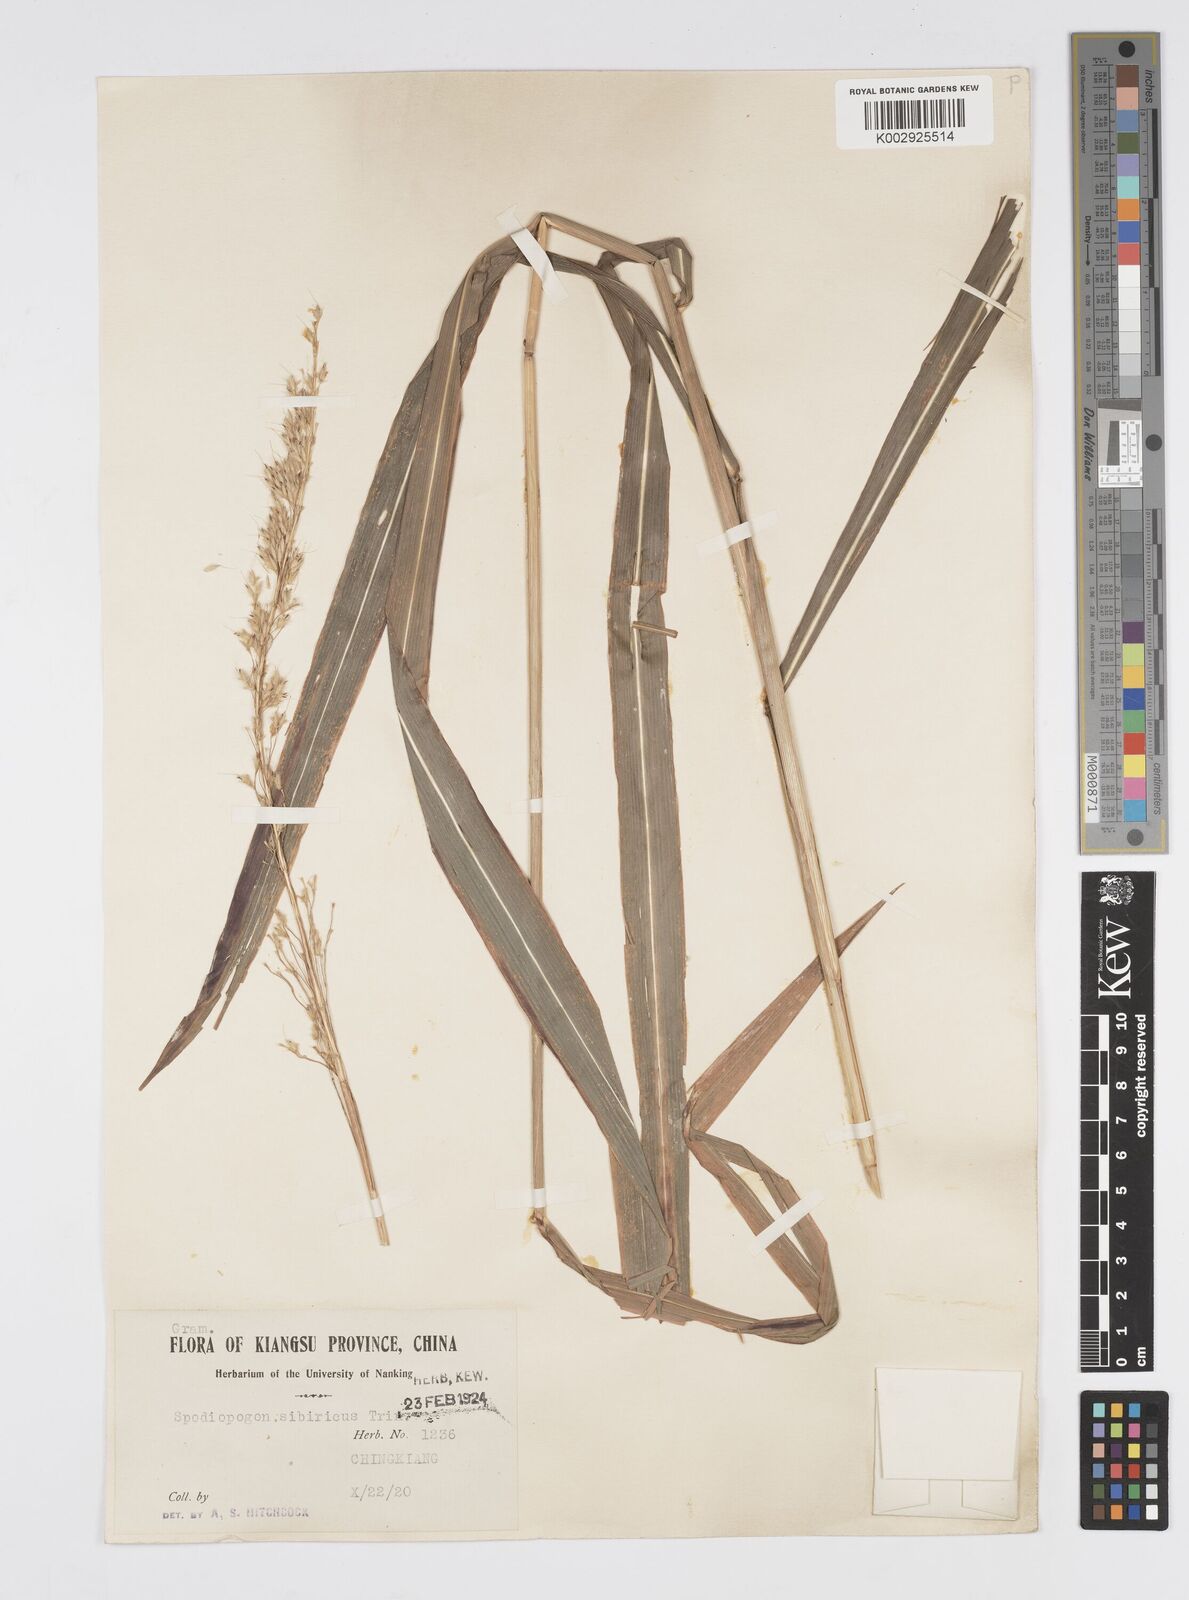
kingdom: Plantae
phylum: Tracheophyta
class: Liliopsida
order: Poales
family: Poaceae
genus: Spodiopogon
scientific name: Spodiopogon sibiricus
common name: Siberian graybeard
